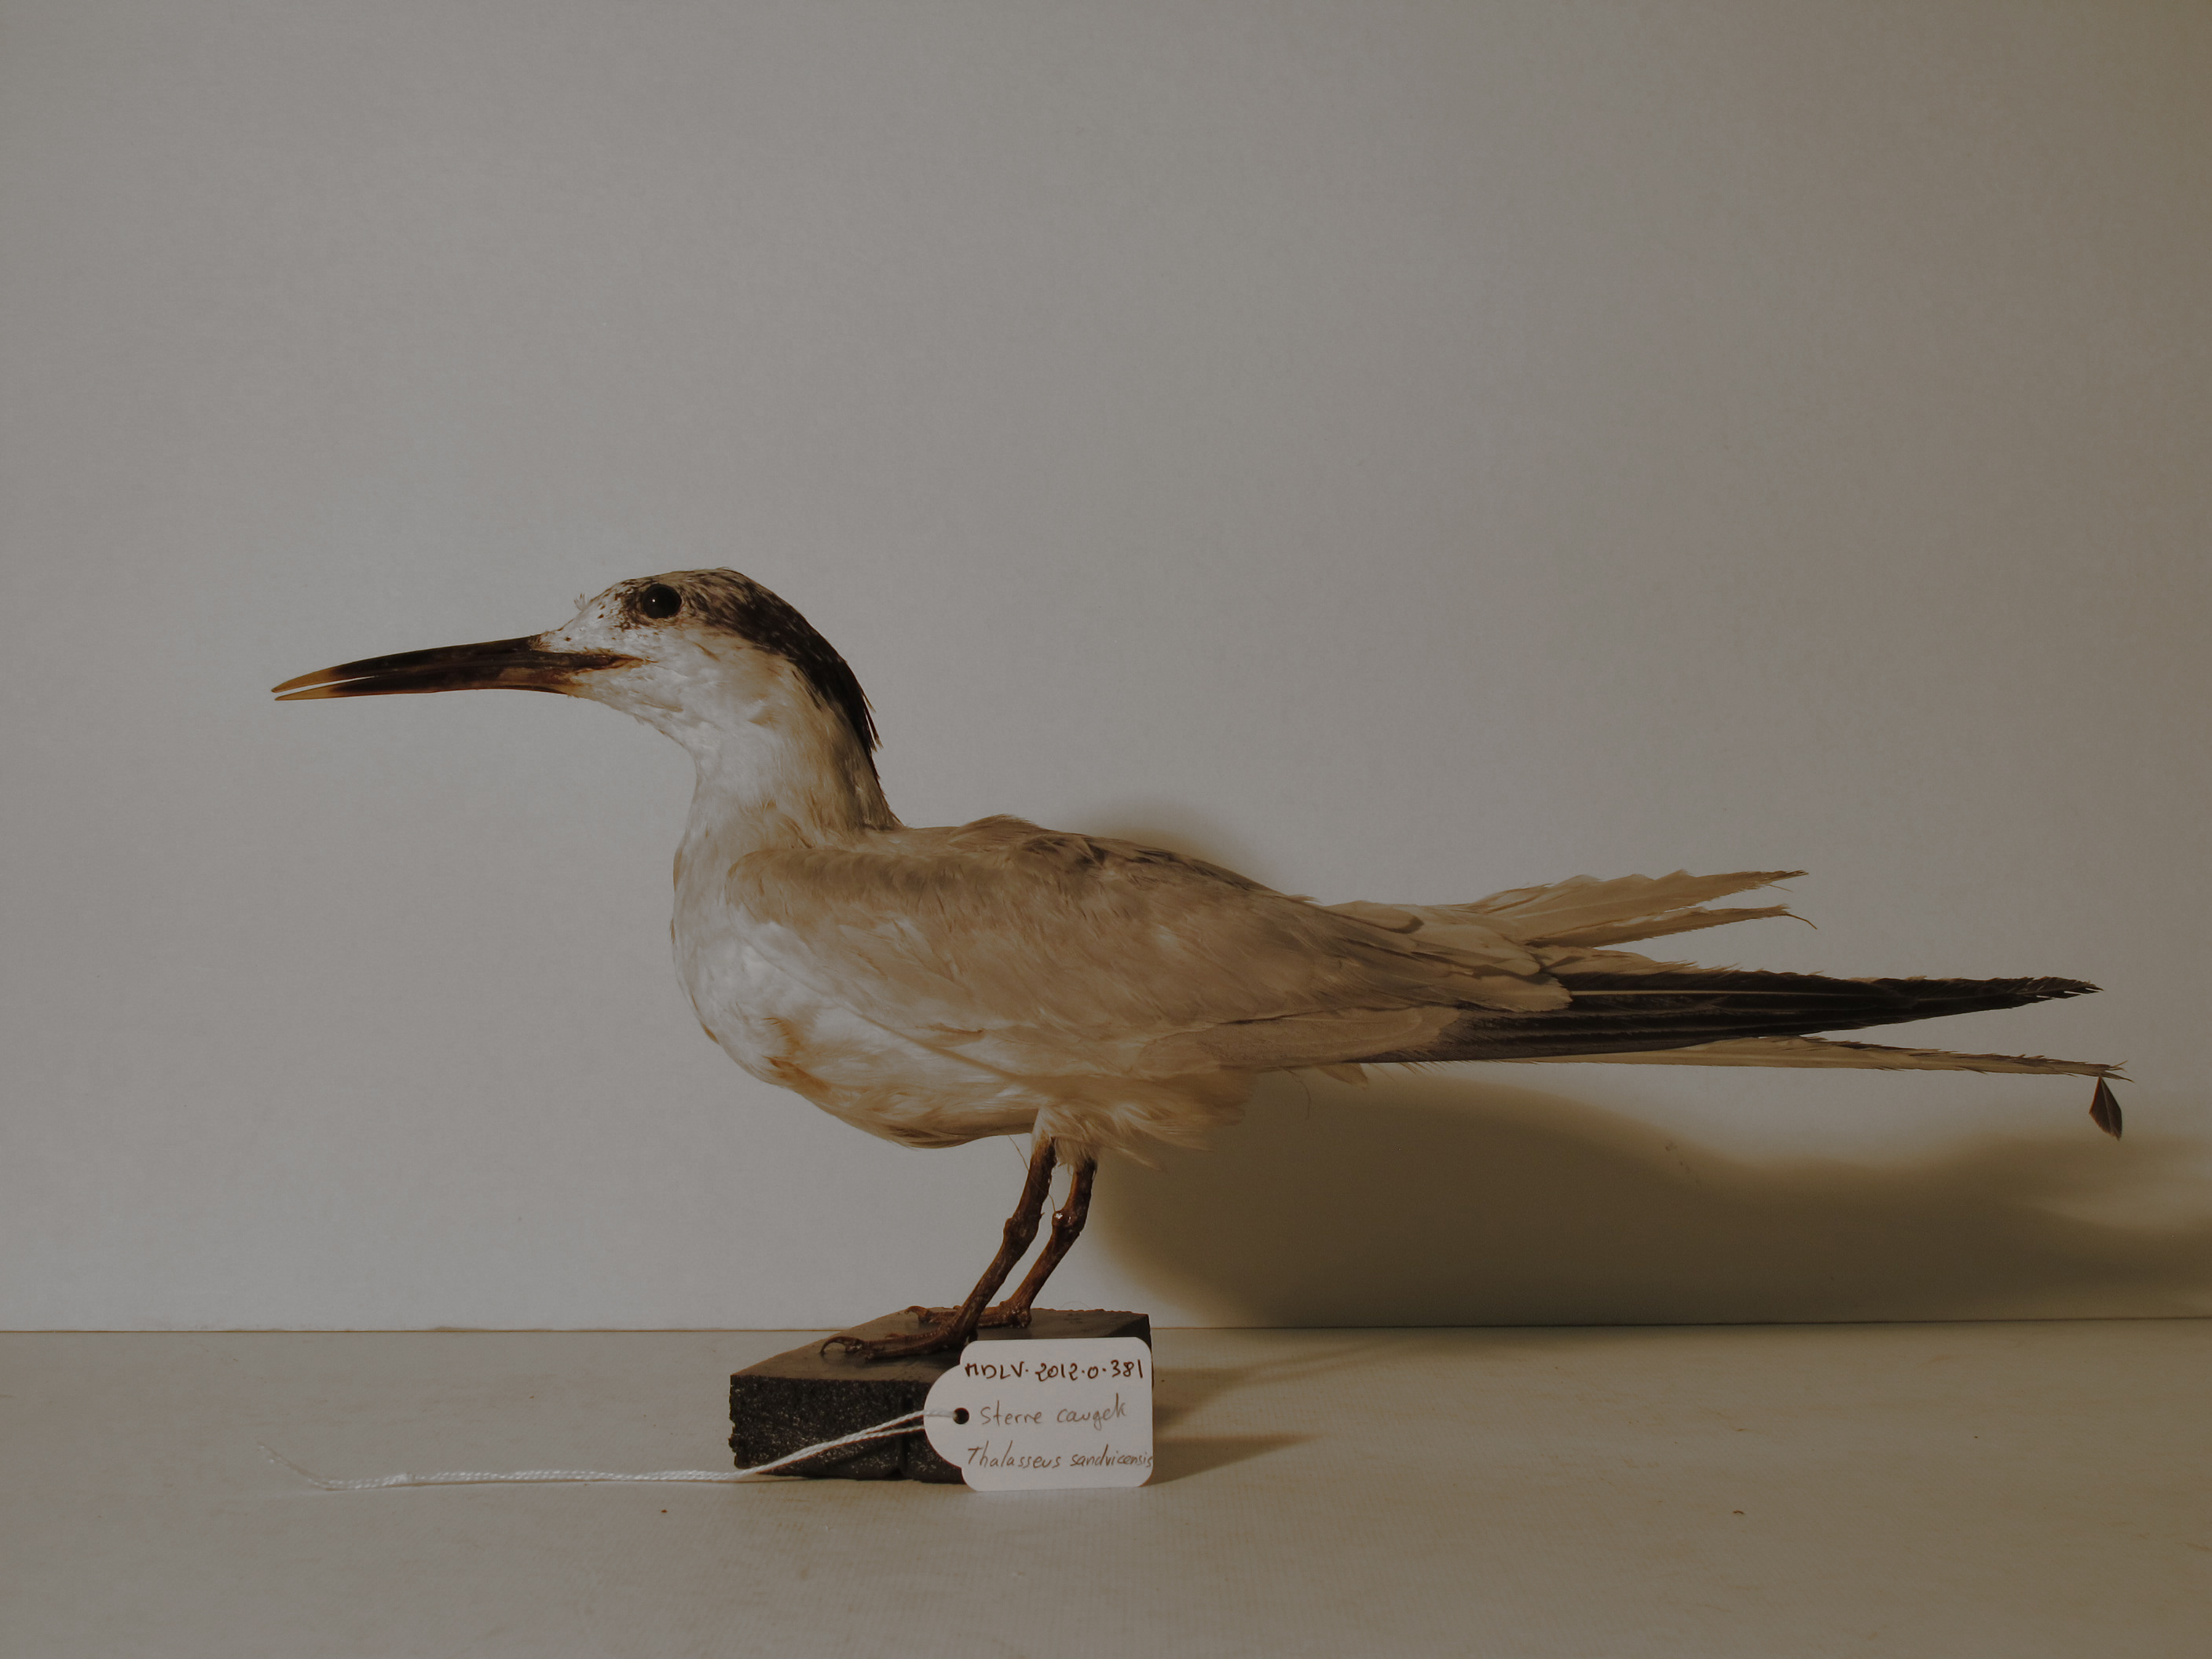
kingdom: Animalia
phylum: Chordata
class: Aves
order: Charadriiformes
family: Laridae
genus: Thalasseus
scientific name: Thalasseus sandvicensis
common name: Sandwich Tern
